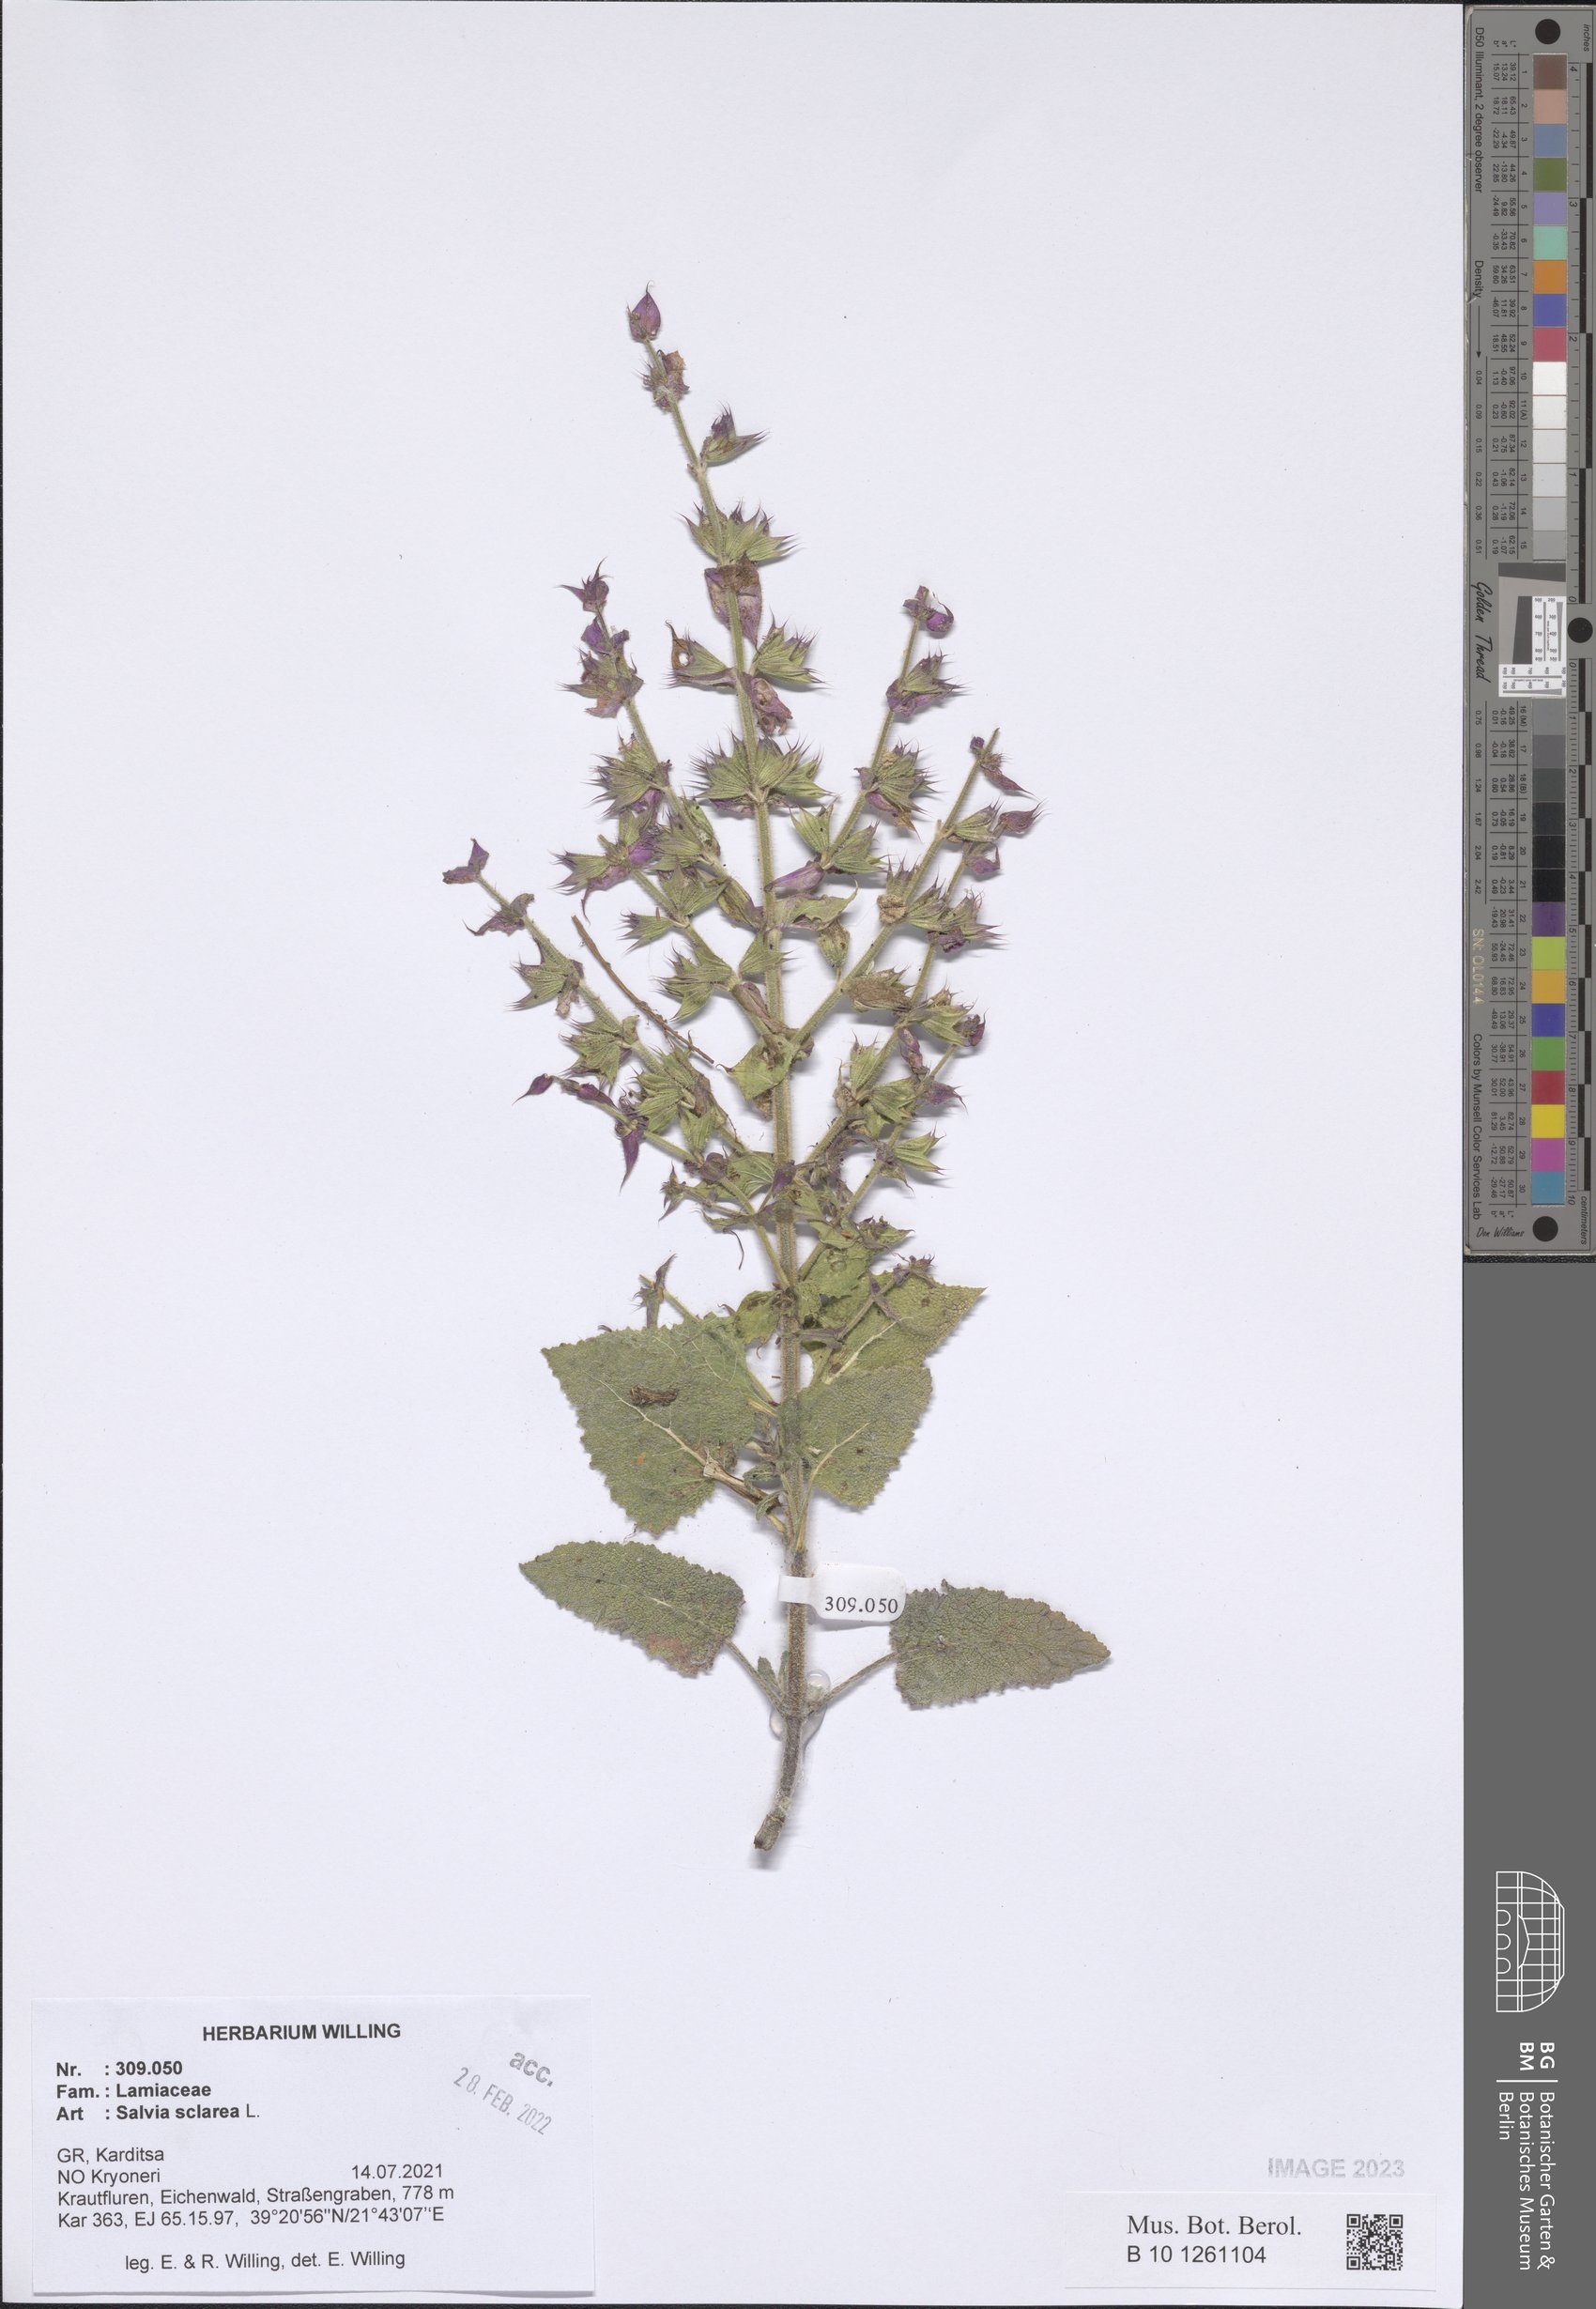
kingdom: Plantae
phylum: Tracheophyta
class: Magnoliopsida
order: Lamiales
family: Lamiaceae
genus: Salvia
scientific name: Salvia sclarea
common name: Clary
